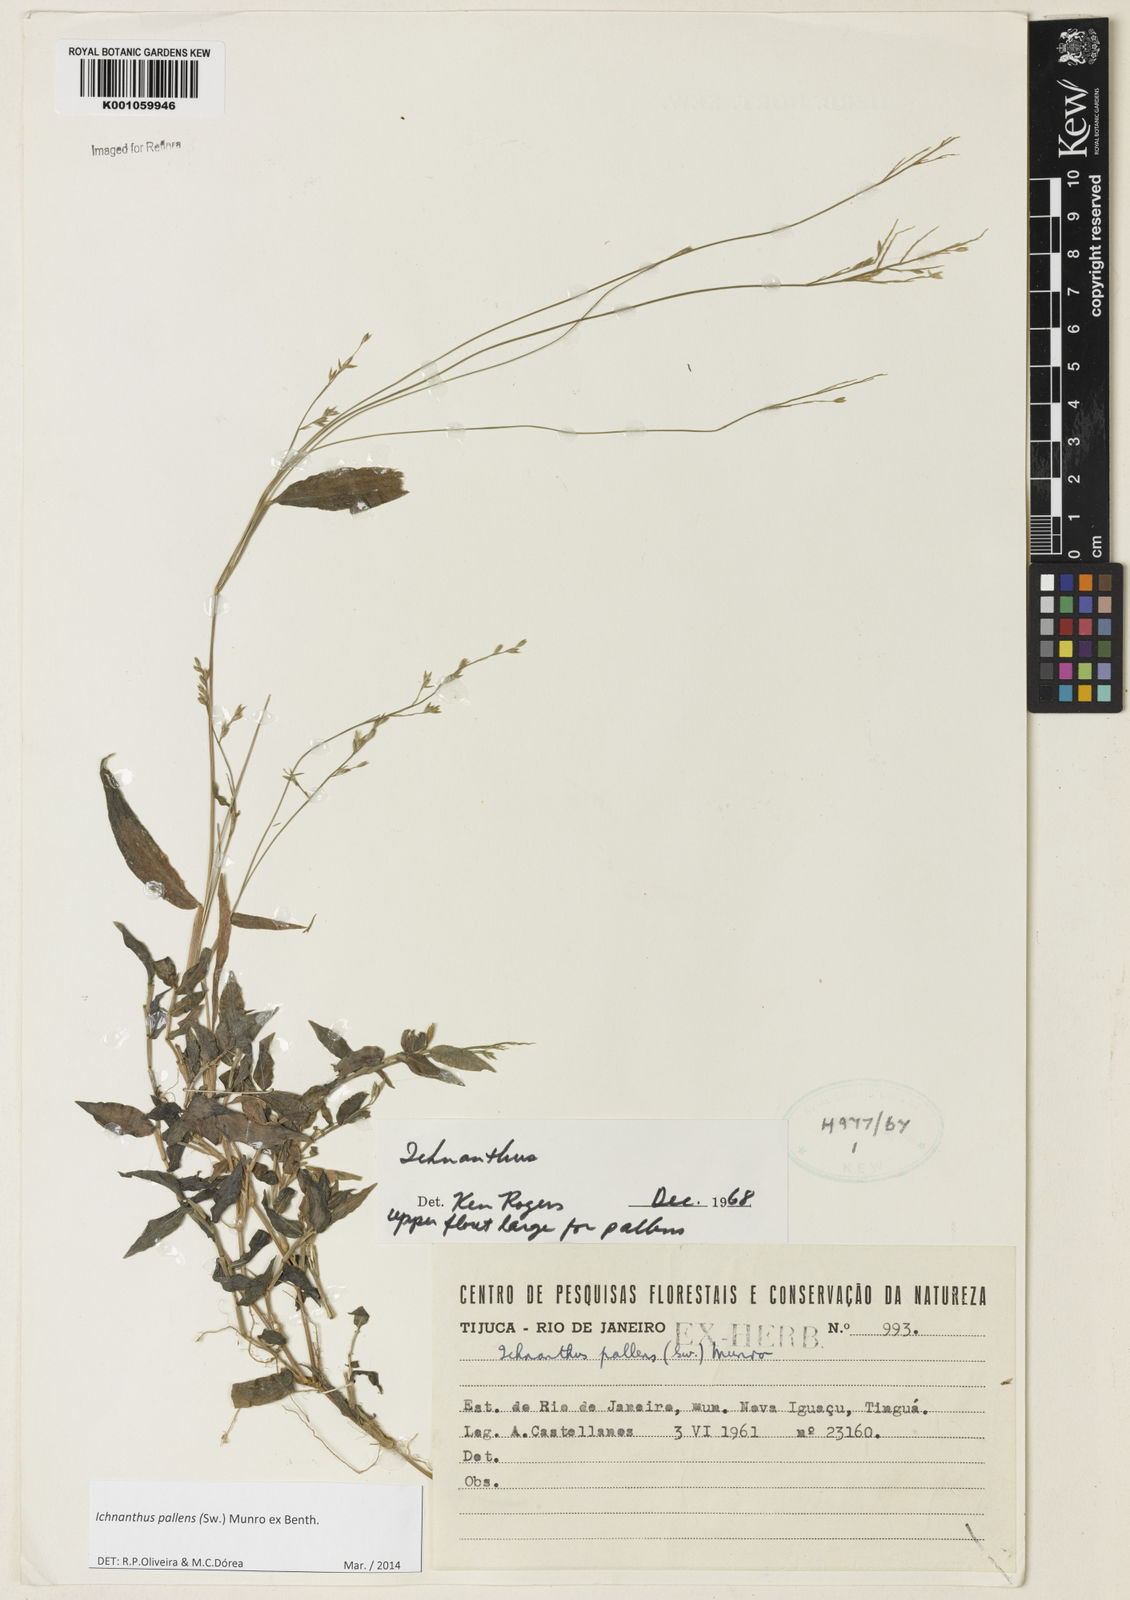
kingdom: Plantae
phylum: Tracheophyta
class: Liliopsida
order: Poales
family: Poaceae
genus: Ichnanthus
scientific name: Ichnanthus pallens
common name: Water grass
